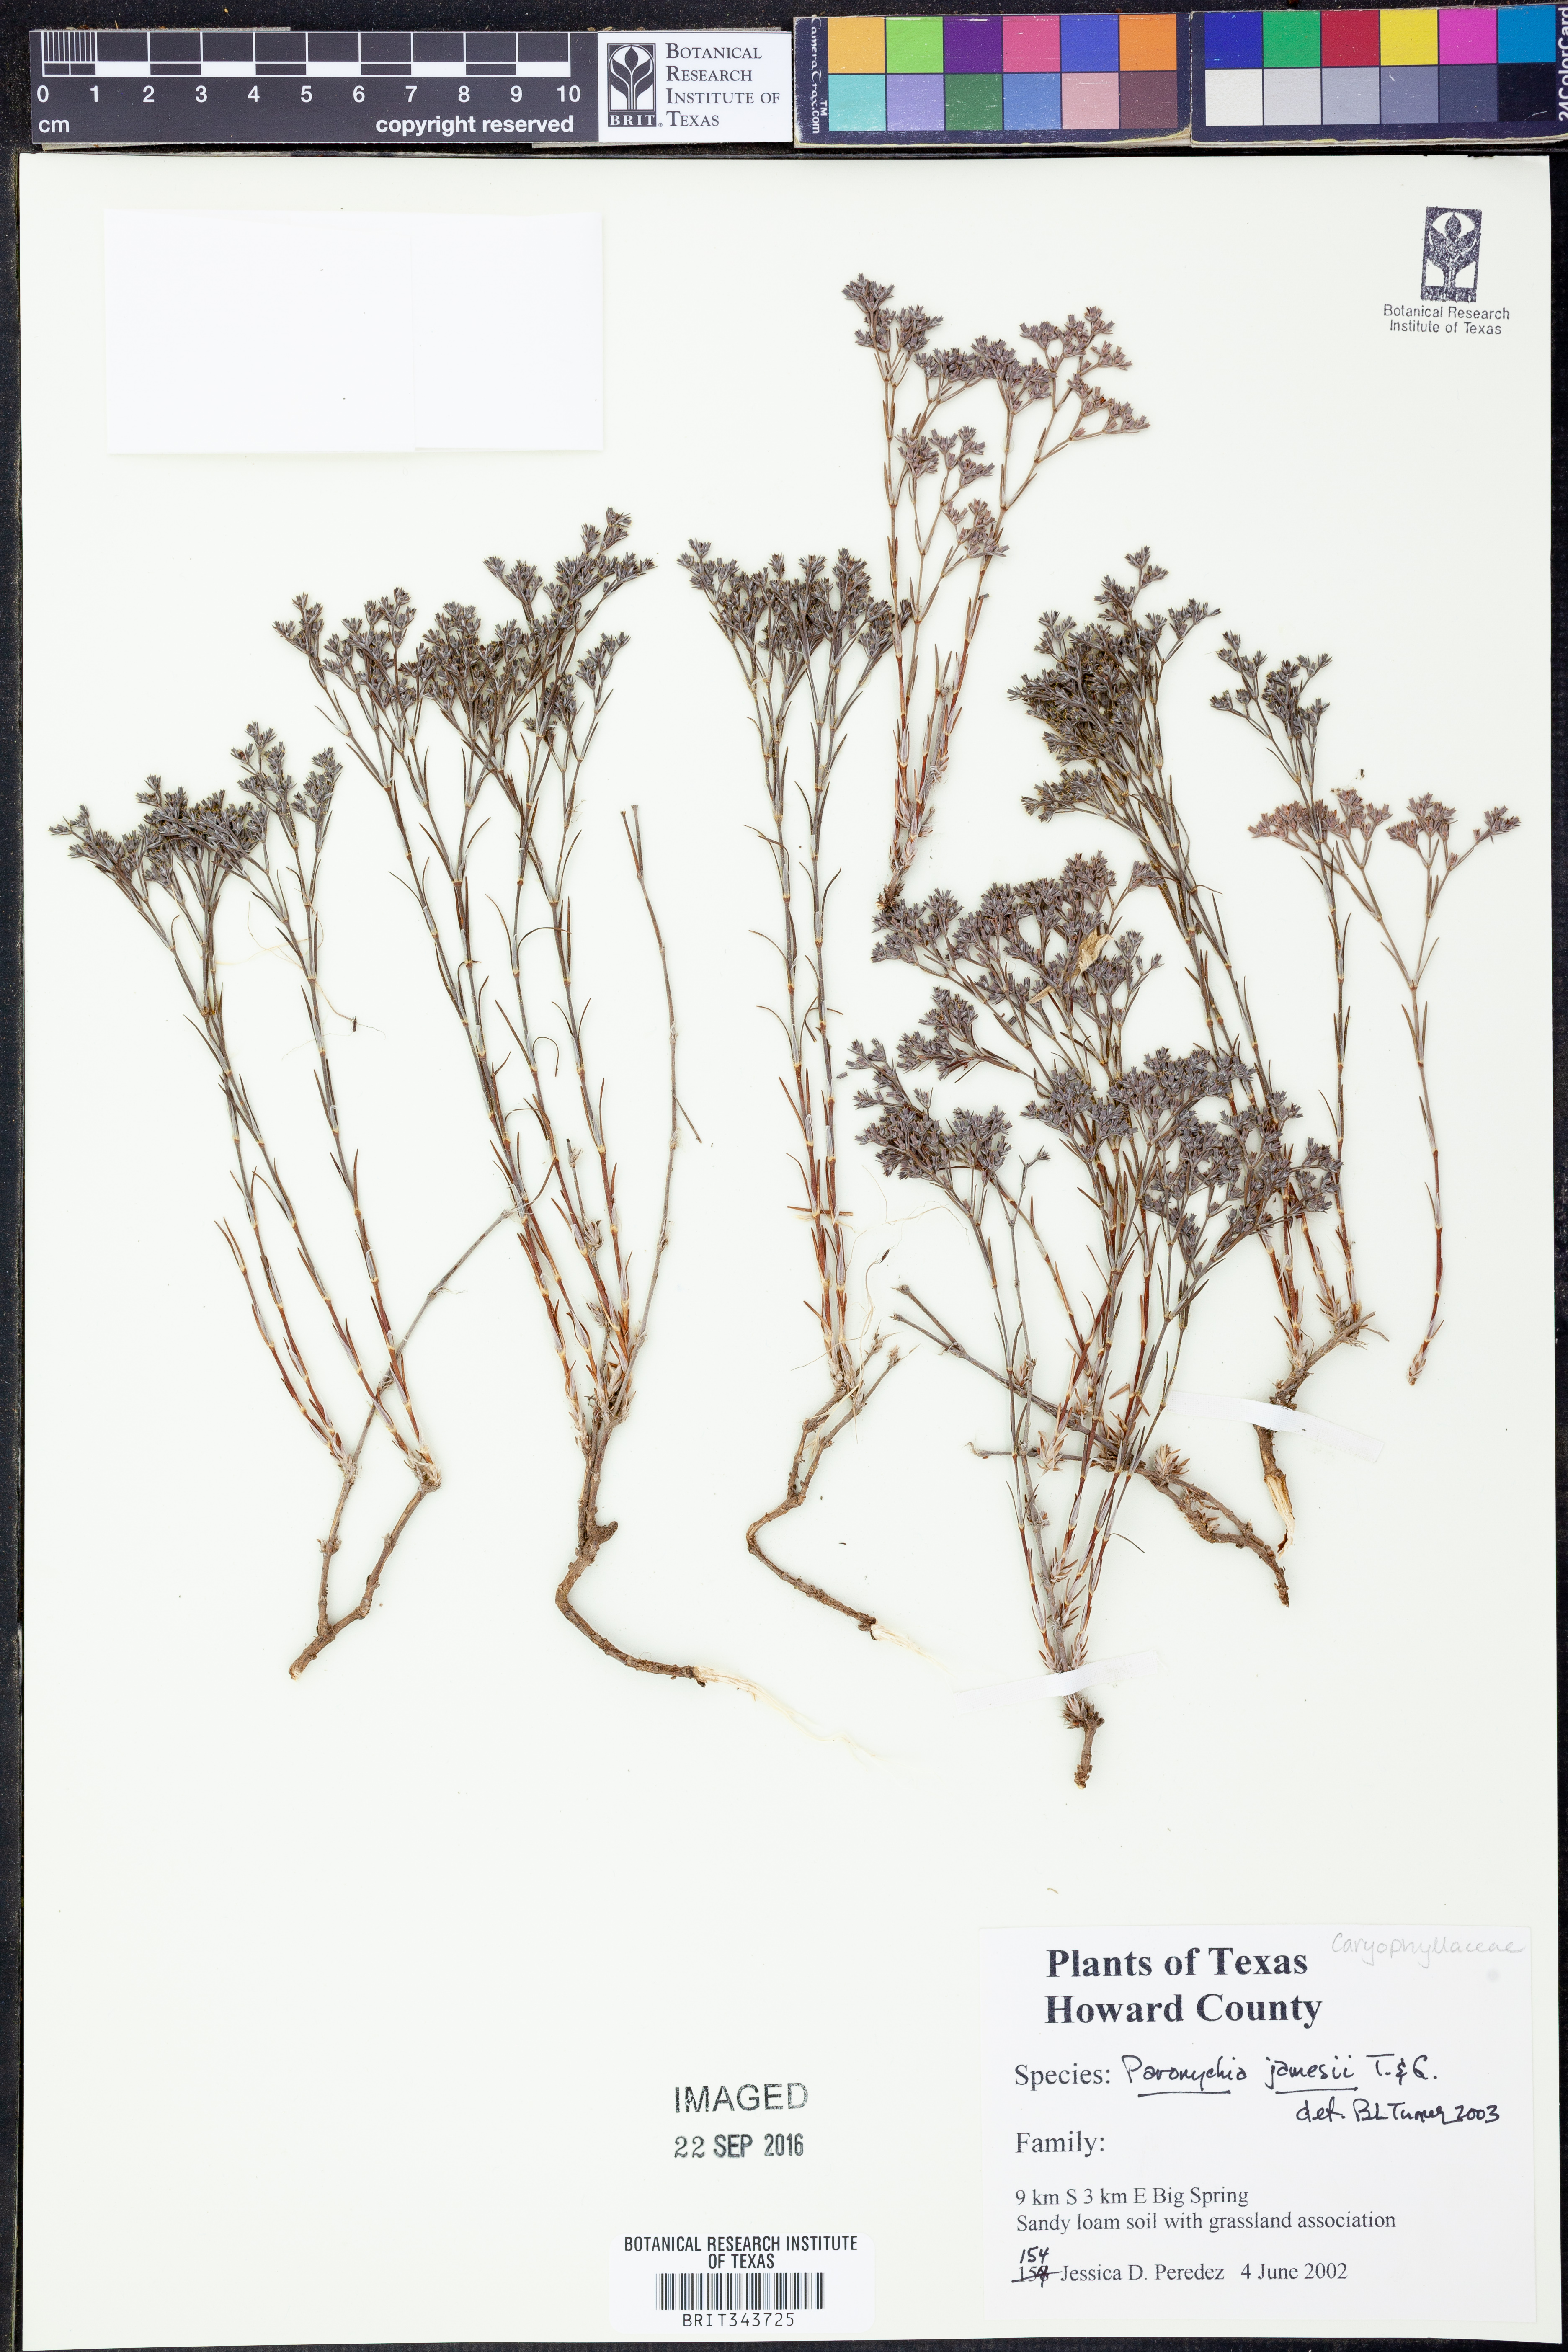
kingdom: Plantae
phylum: Tracheophyta
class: Magnoliopsida
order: Caryophyllales
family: Caryophyllaceae
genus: Paronychia
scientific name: Paronychia jamesii
